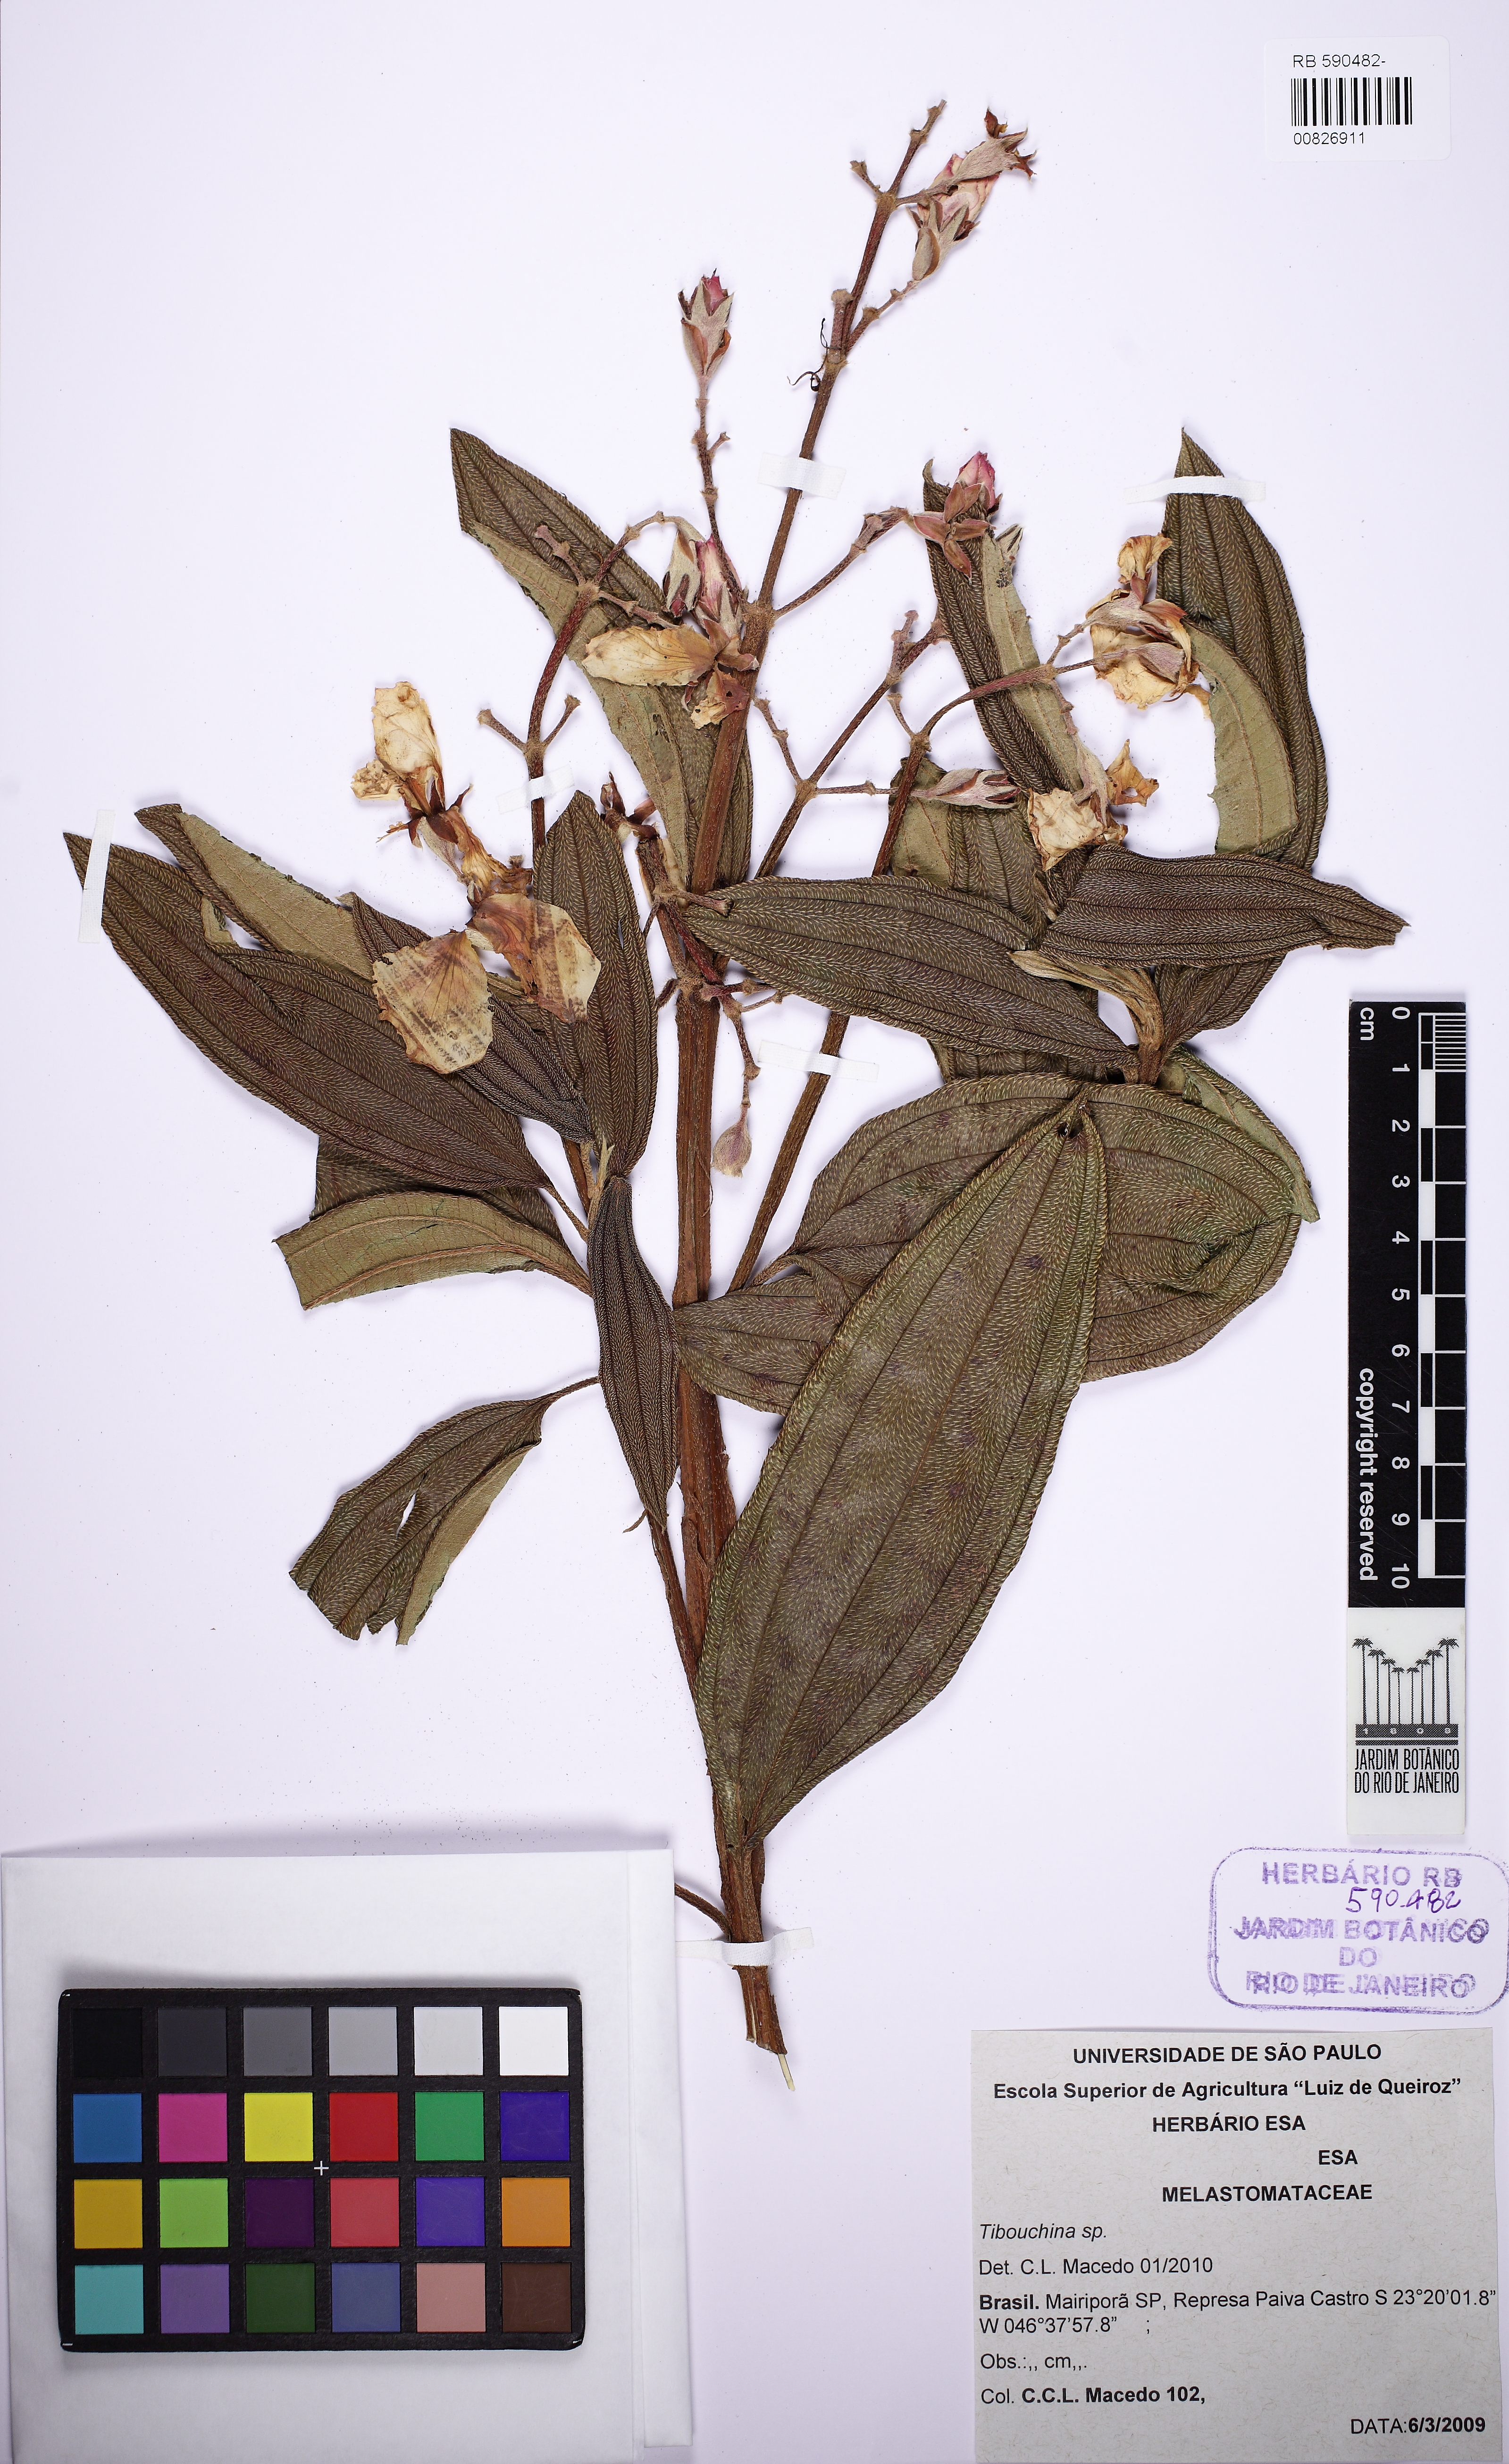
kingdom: Plantae
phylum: Tracheophyta
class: Magnoliopsida
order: Myrtales
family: Melastomataceae
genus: Tibouchina
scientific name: Tibouchina
